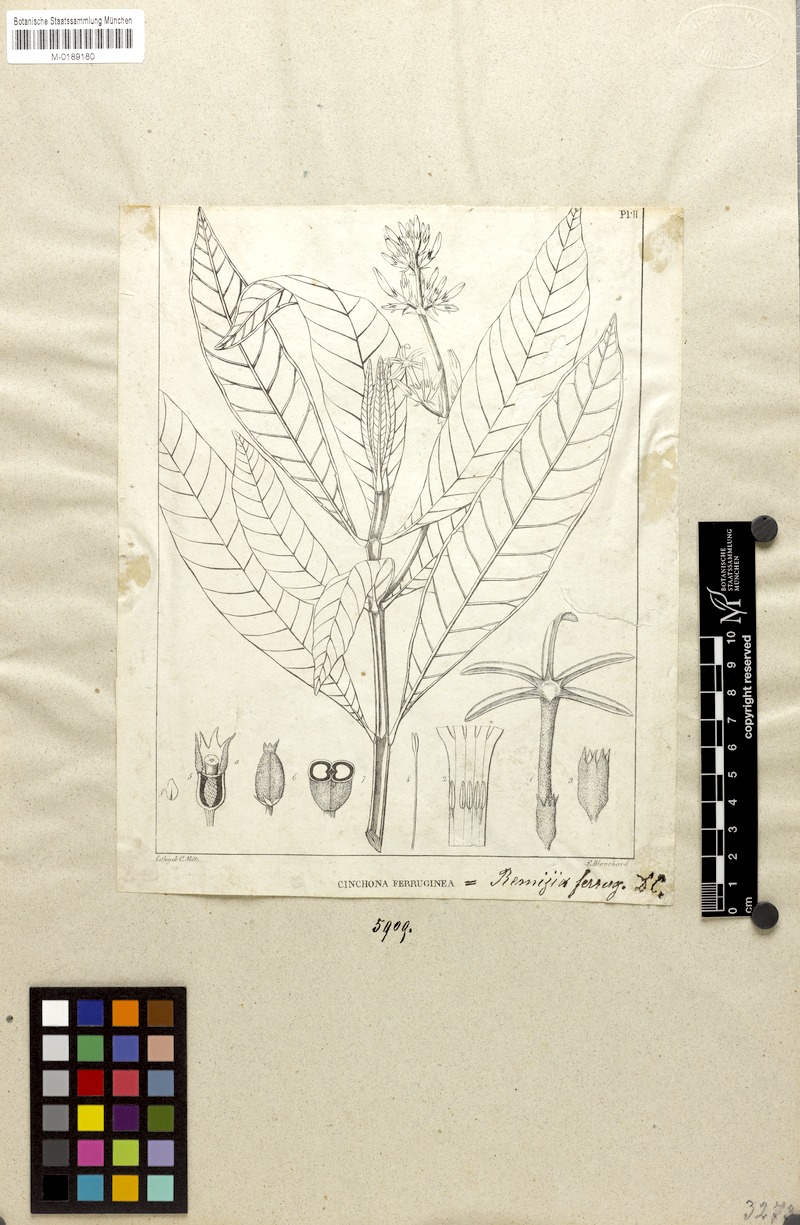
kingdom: Plantae
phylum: Tracheophyta
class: Magnoliopsida
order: Gentianales
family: Rubiaceae
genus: Remijia
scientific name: Remijia ferruginea
